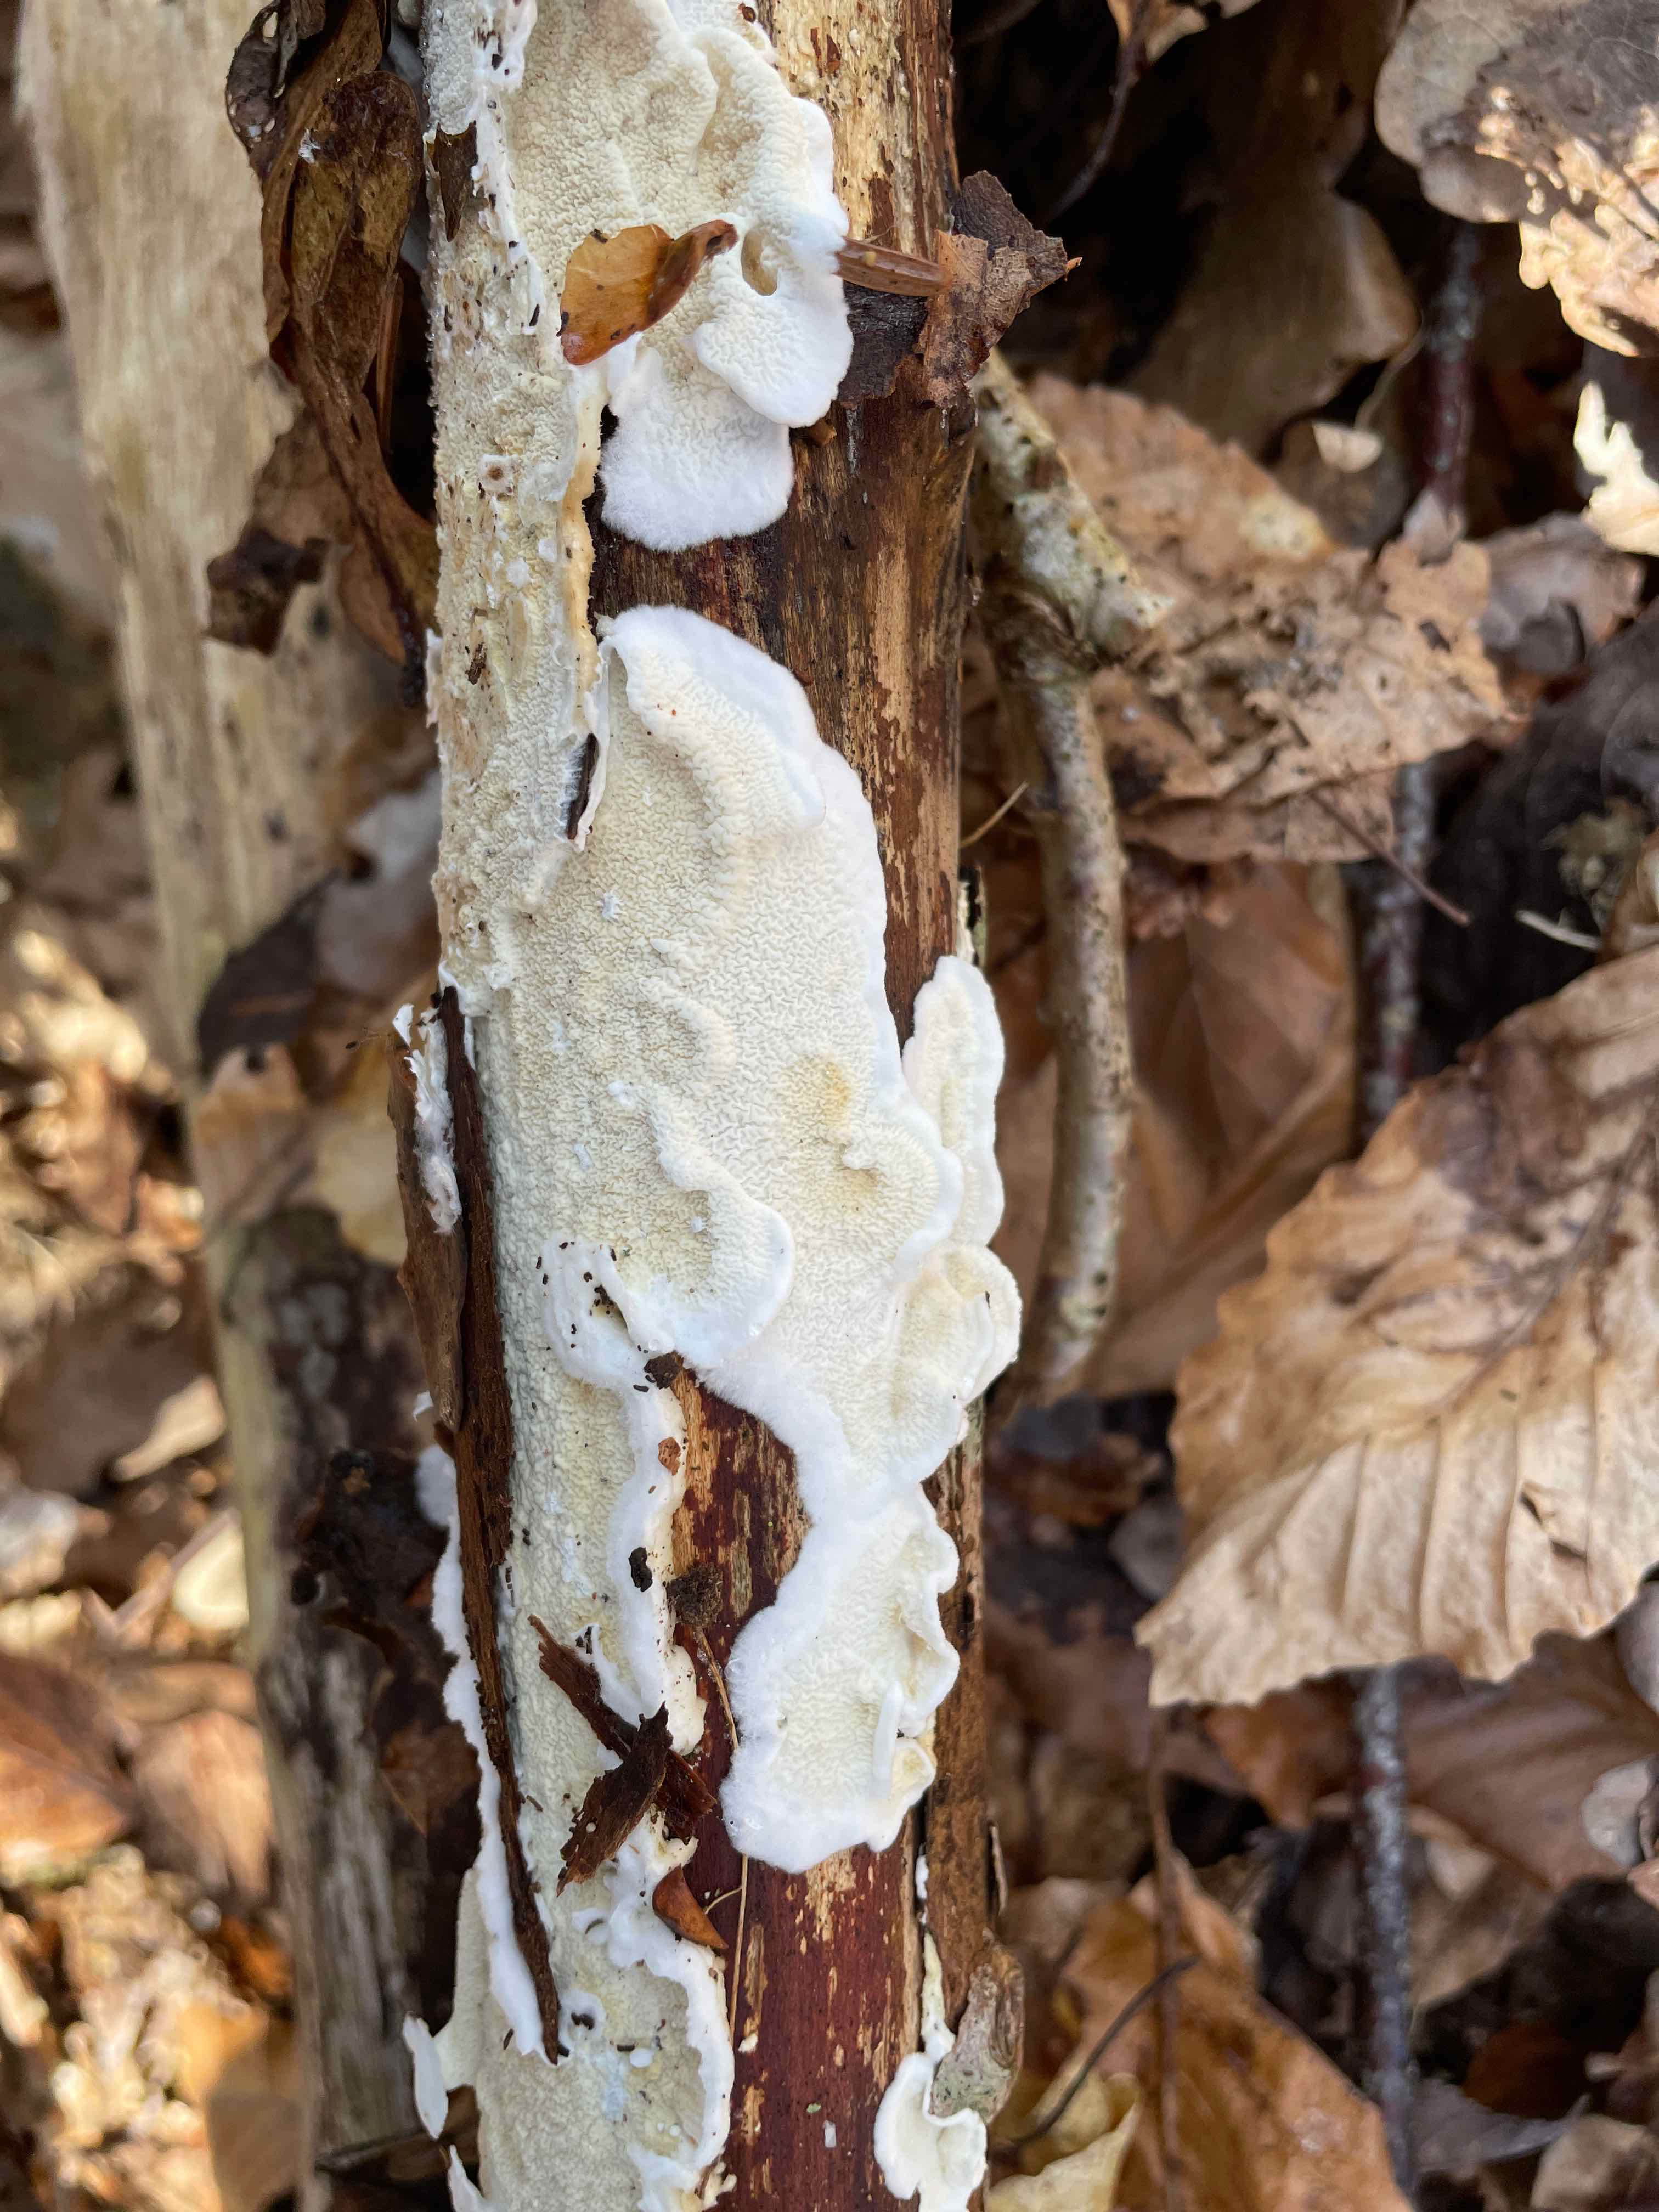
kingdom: Fungi
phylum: Basidiomycota
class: Agaricomycetes
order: Polyporales
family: Irpicaceae
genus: Byssomerulius
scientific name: Byssomerulius corium
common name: læder-åresvamp
